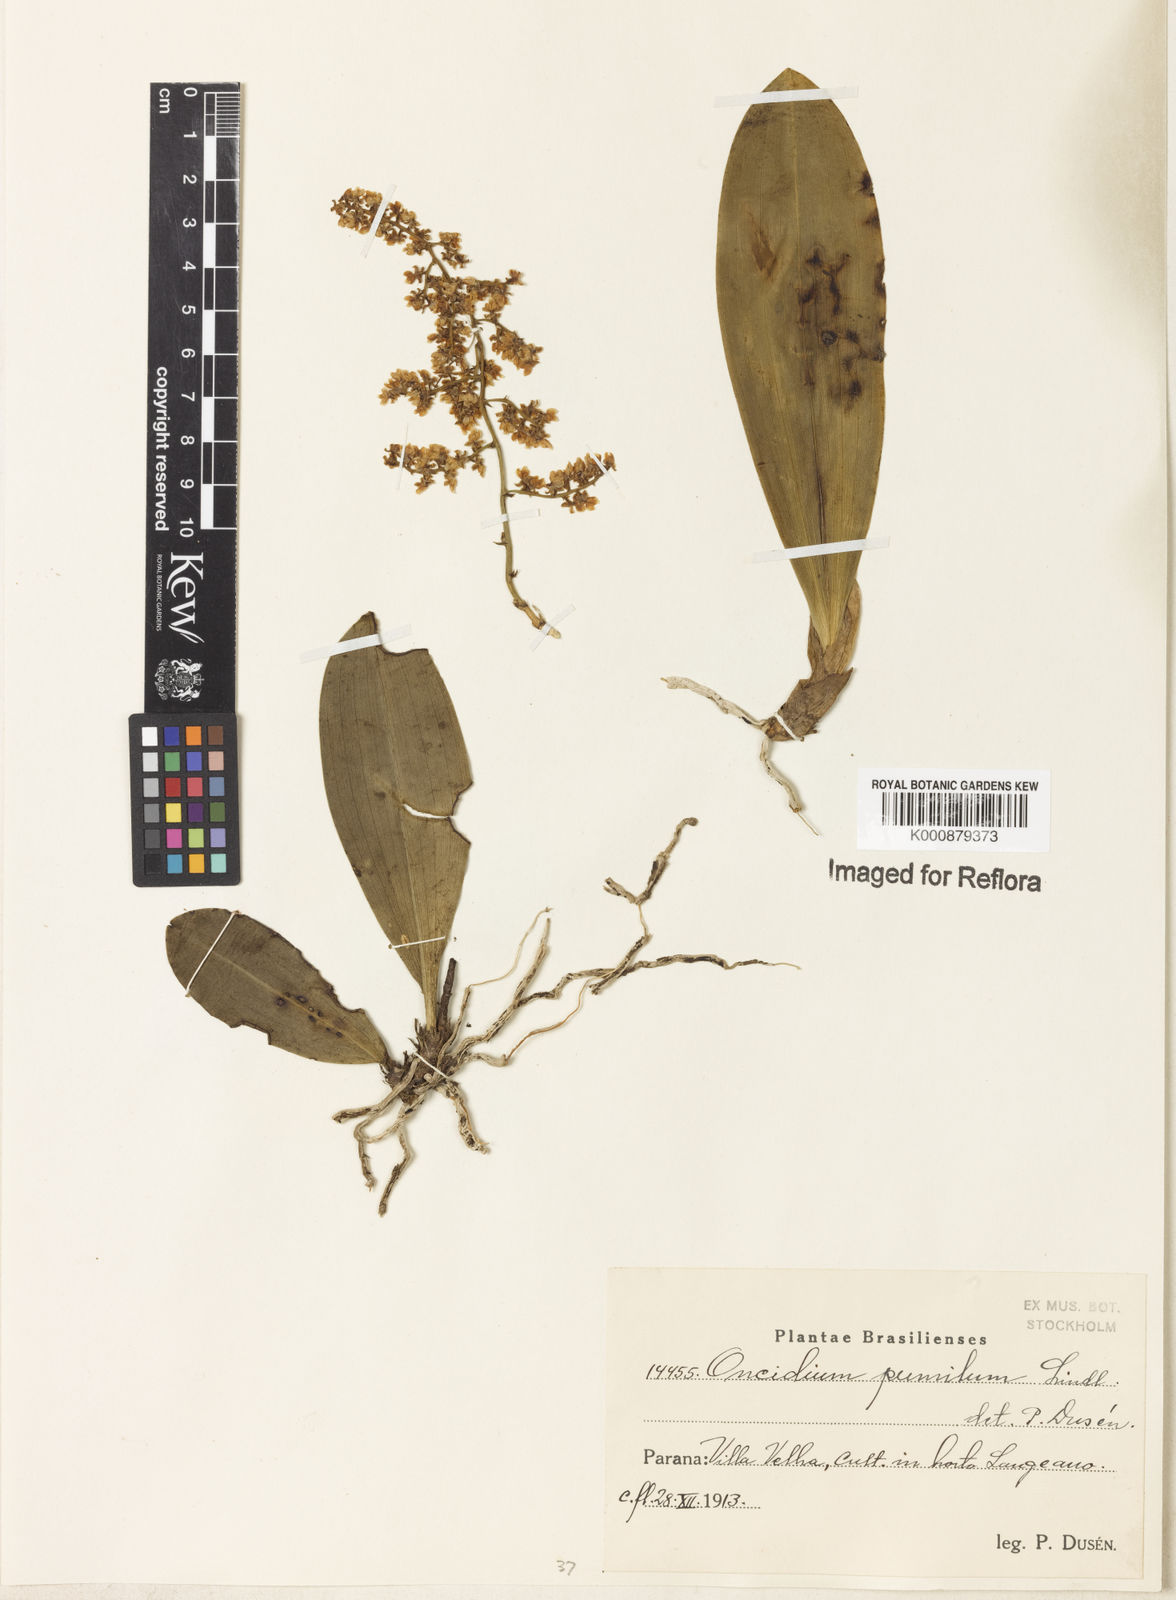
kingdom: Plantae
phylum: Tracheophyta
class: Liliopsida
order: Asparagales
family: Orchidaceae
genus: Trichocentrum
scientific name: Trichocentrum pumilum
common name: Mule-ear orchid
